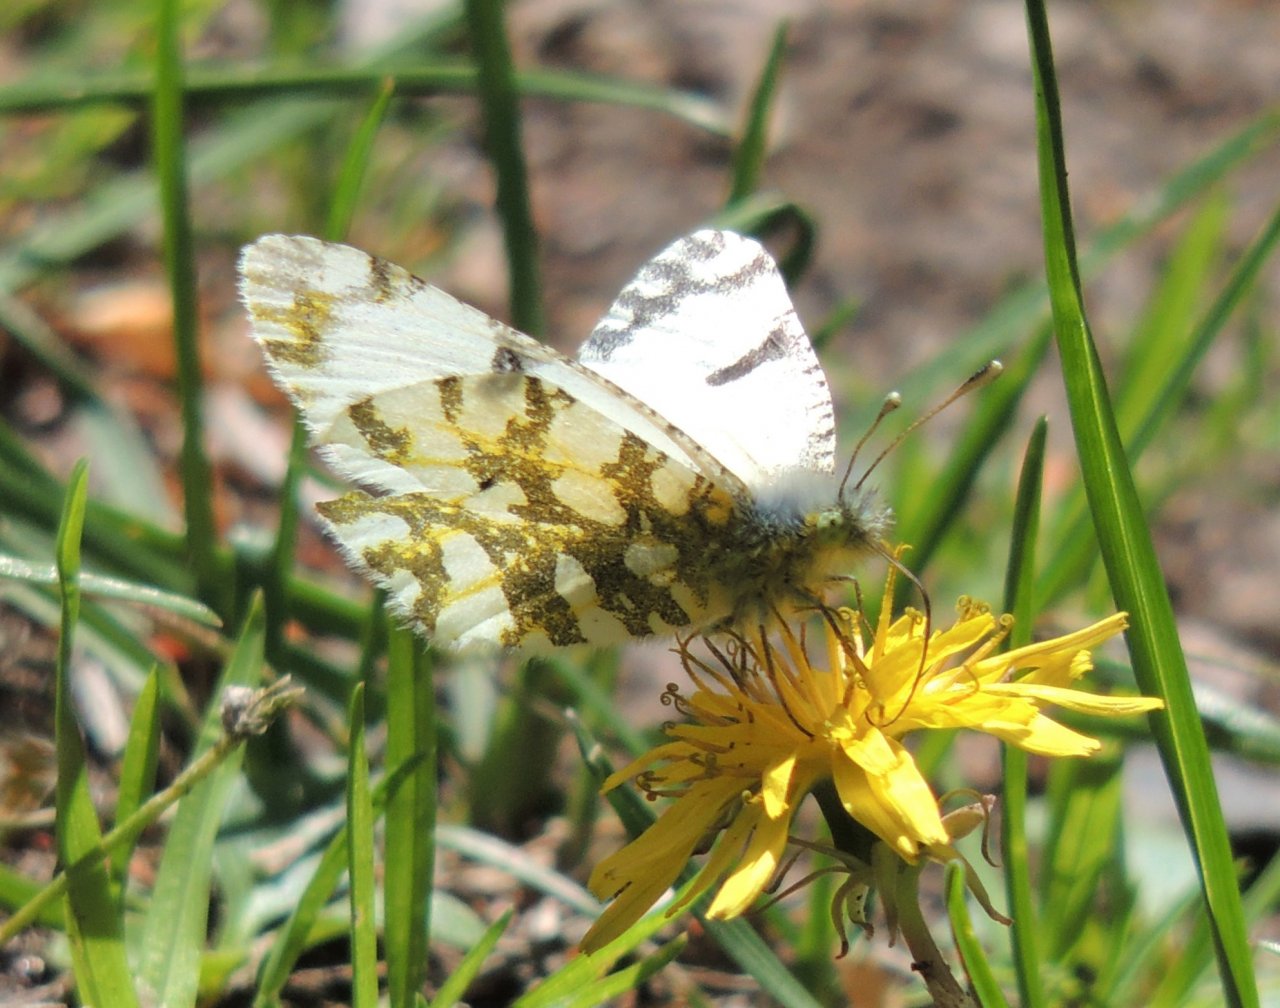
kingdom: Animalia
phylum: Arthropoda
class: Insecta
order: Lepidoptera
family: Pieridae
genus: Euchloe
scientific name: Euchloe ausonides
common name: Large Marble
